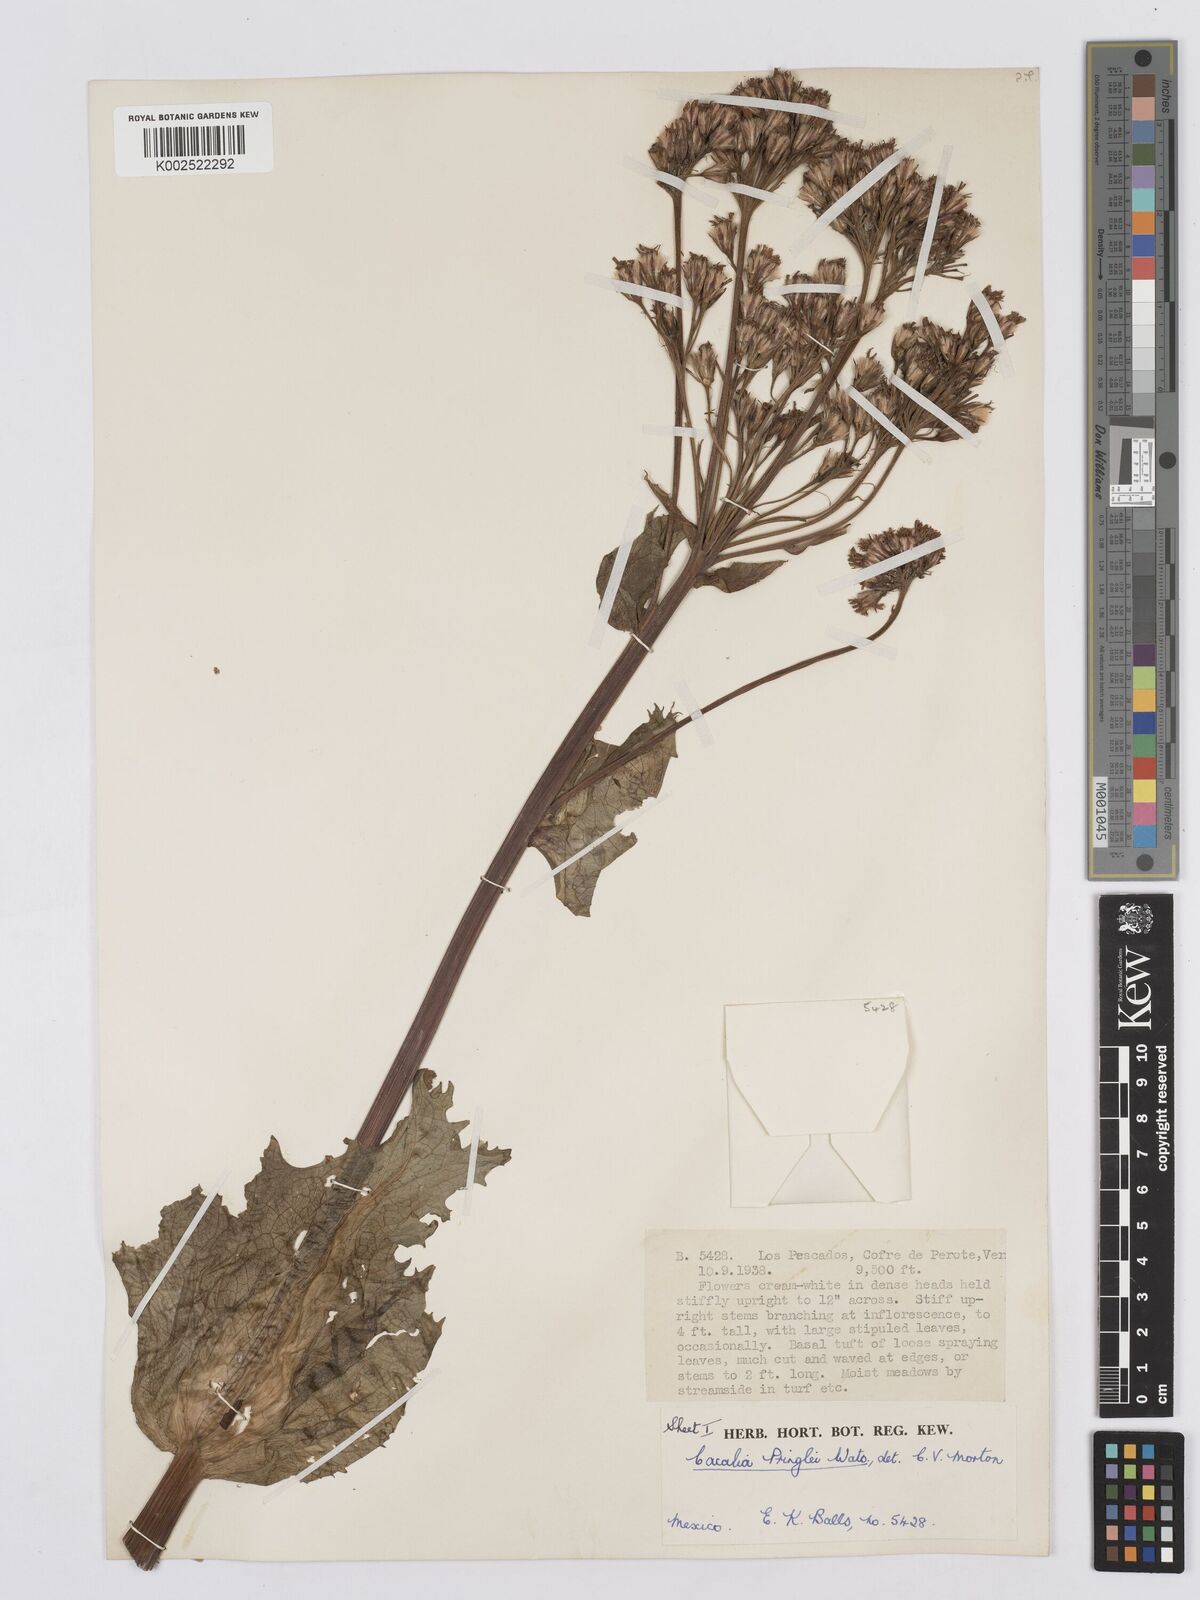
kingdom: Plantae
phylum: Tracheophyta
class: Magnoliopsida
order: Asterales
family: Asteraceae
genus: Psacalium
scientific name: Psacalium pringlei
